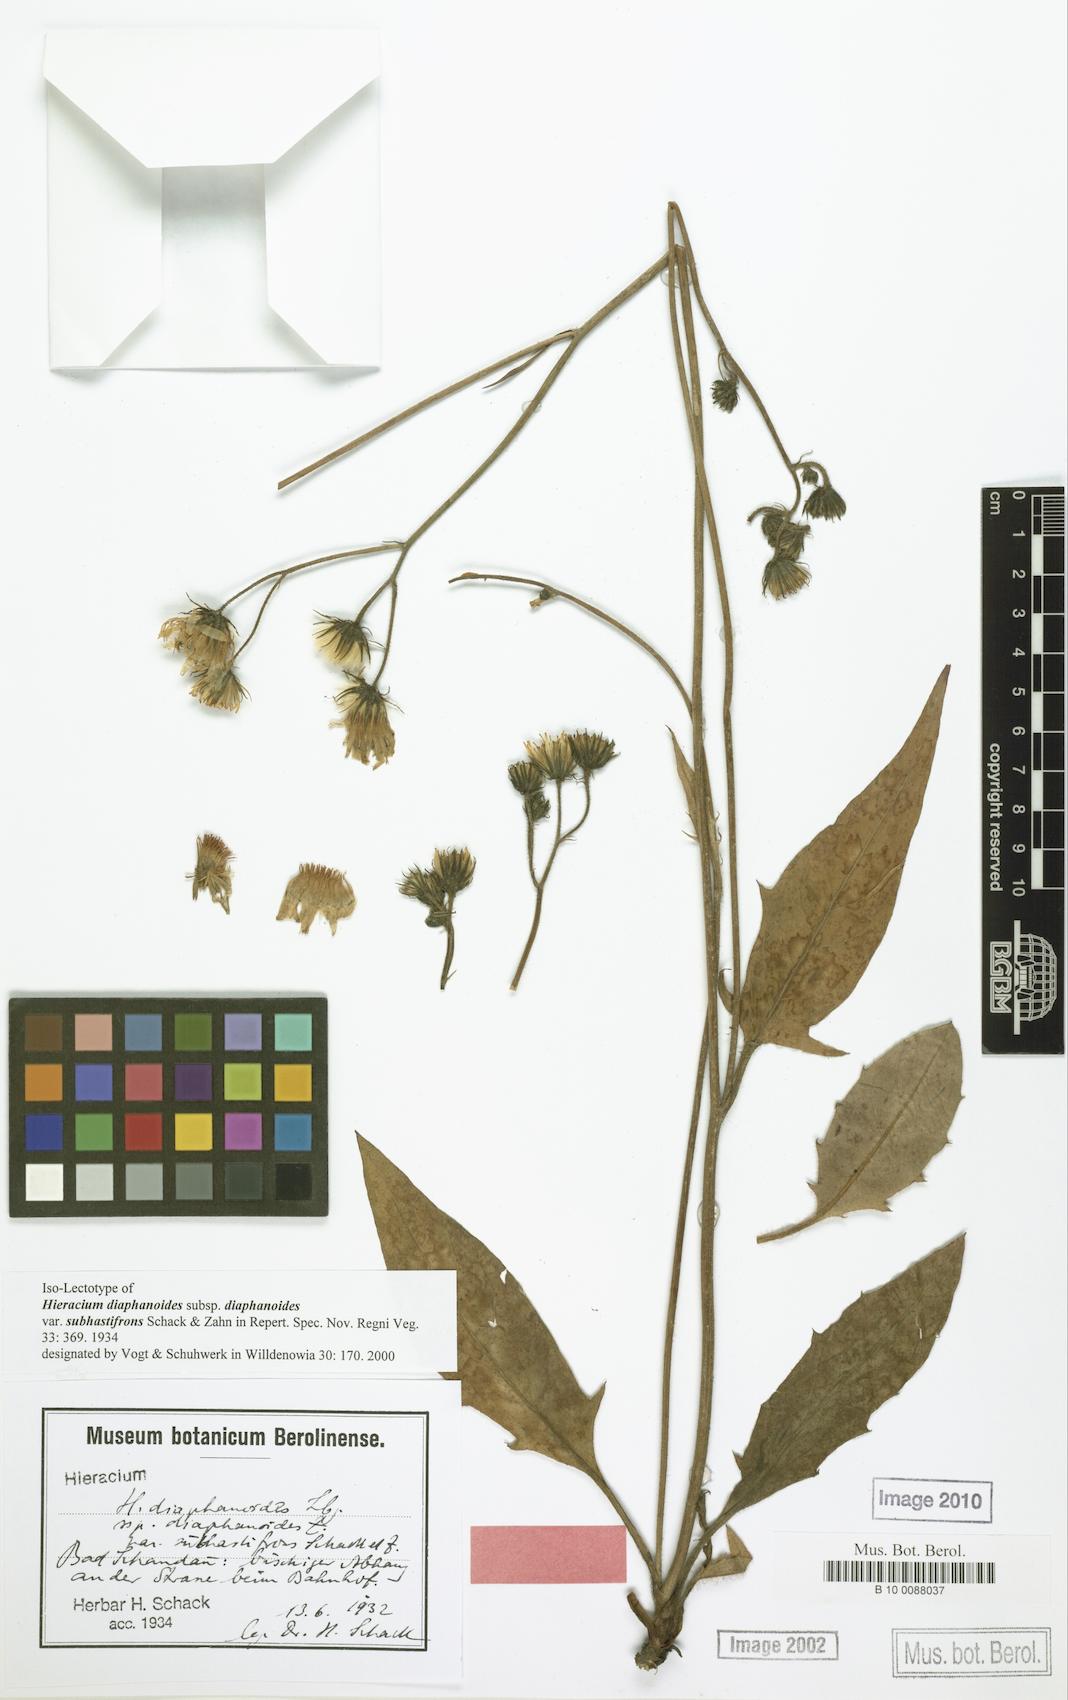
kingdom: Plantae
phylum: Tracheophyta
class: Magnoliopsida
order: Asterales
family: Asteraceae
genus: Hieracium
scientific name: Hieracium diaphanoides
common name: Fine-bracted hawkweed
